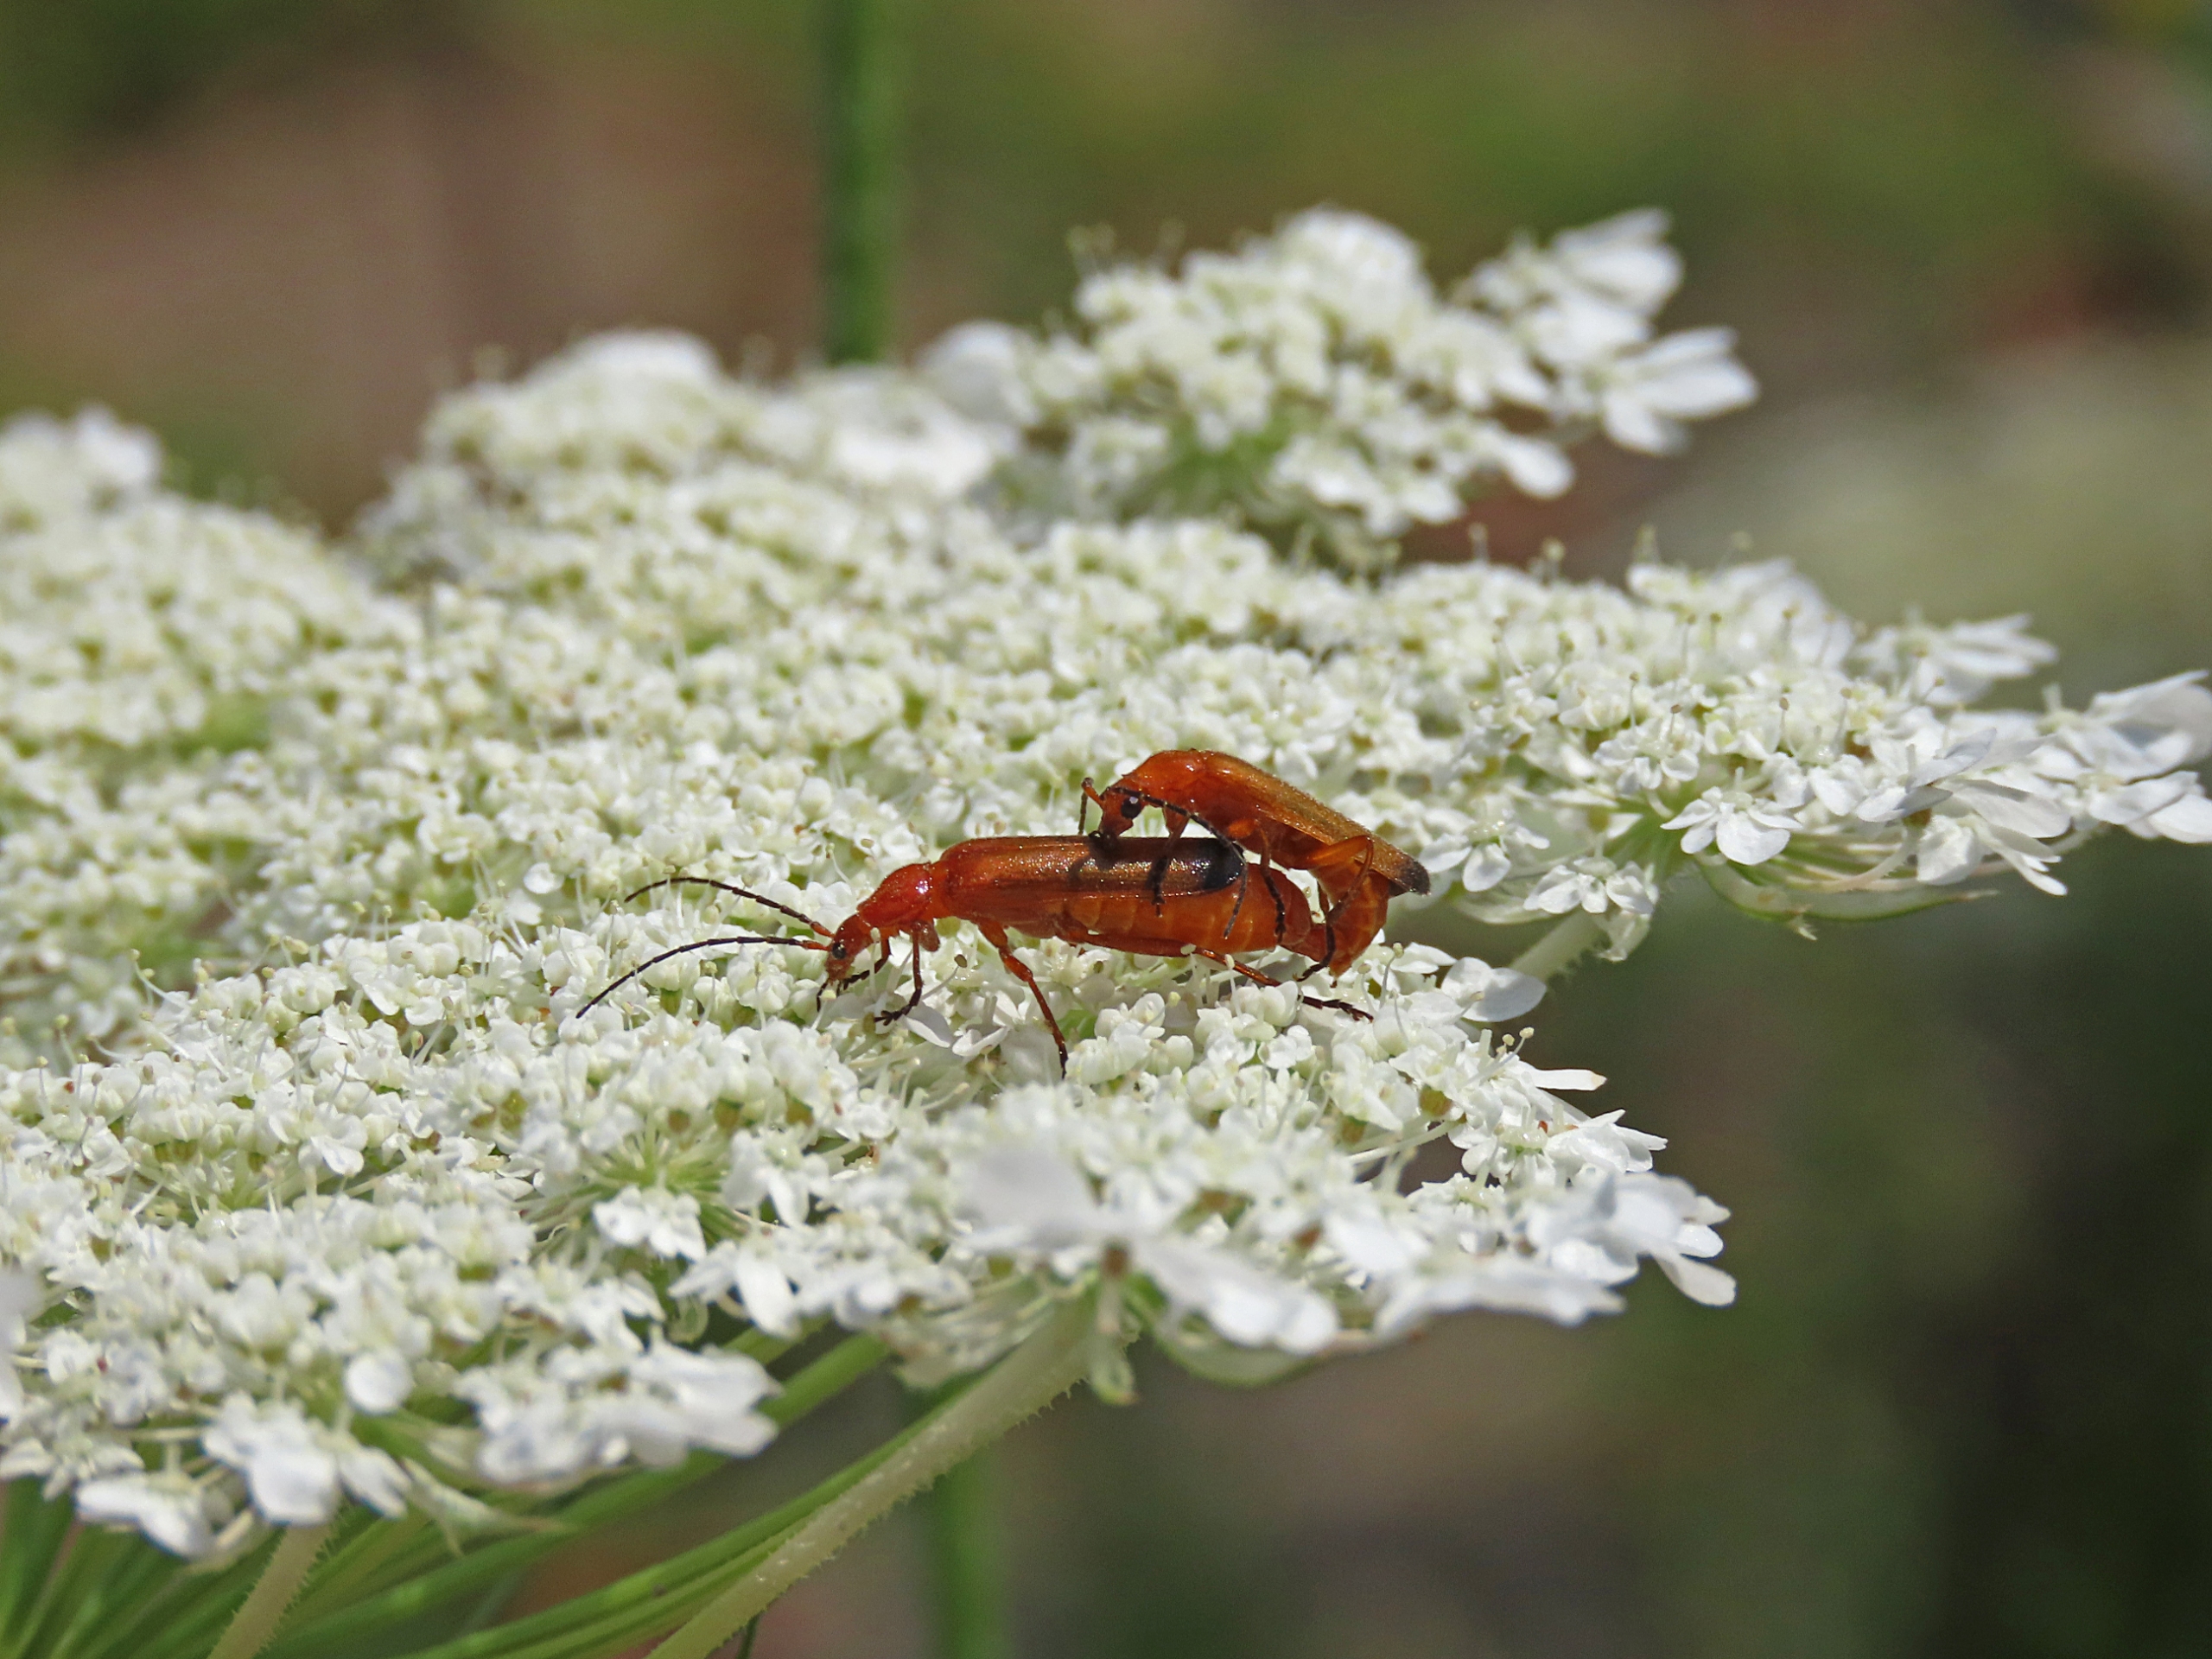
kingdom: Animalia
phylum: Arthropoda
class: Insecta
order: Coleoptera
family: Cantharidae
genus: Rhagonycha
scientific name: Rhagonycha fulva
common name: Præstebille
